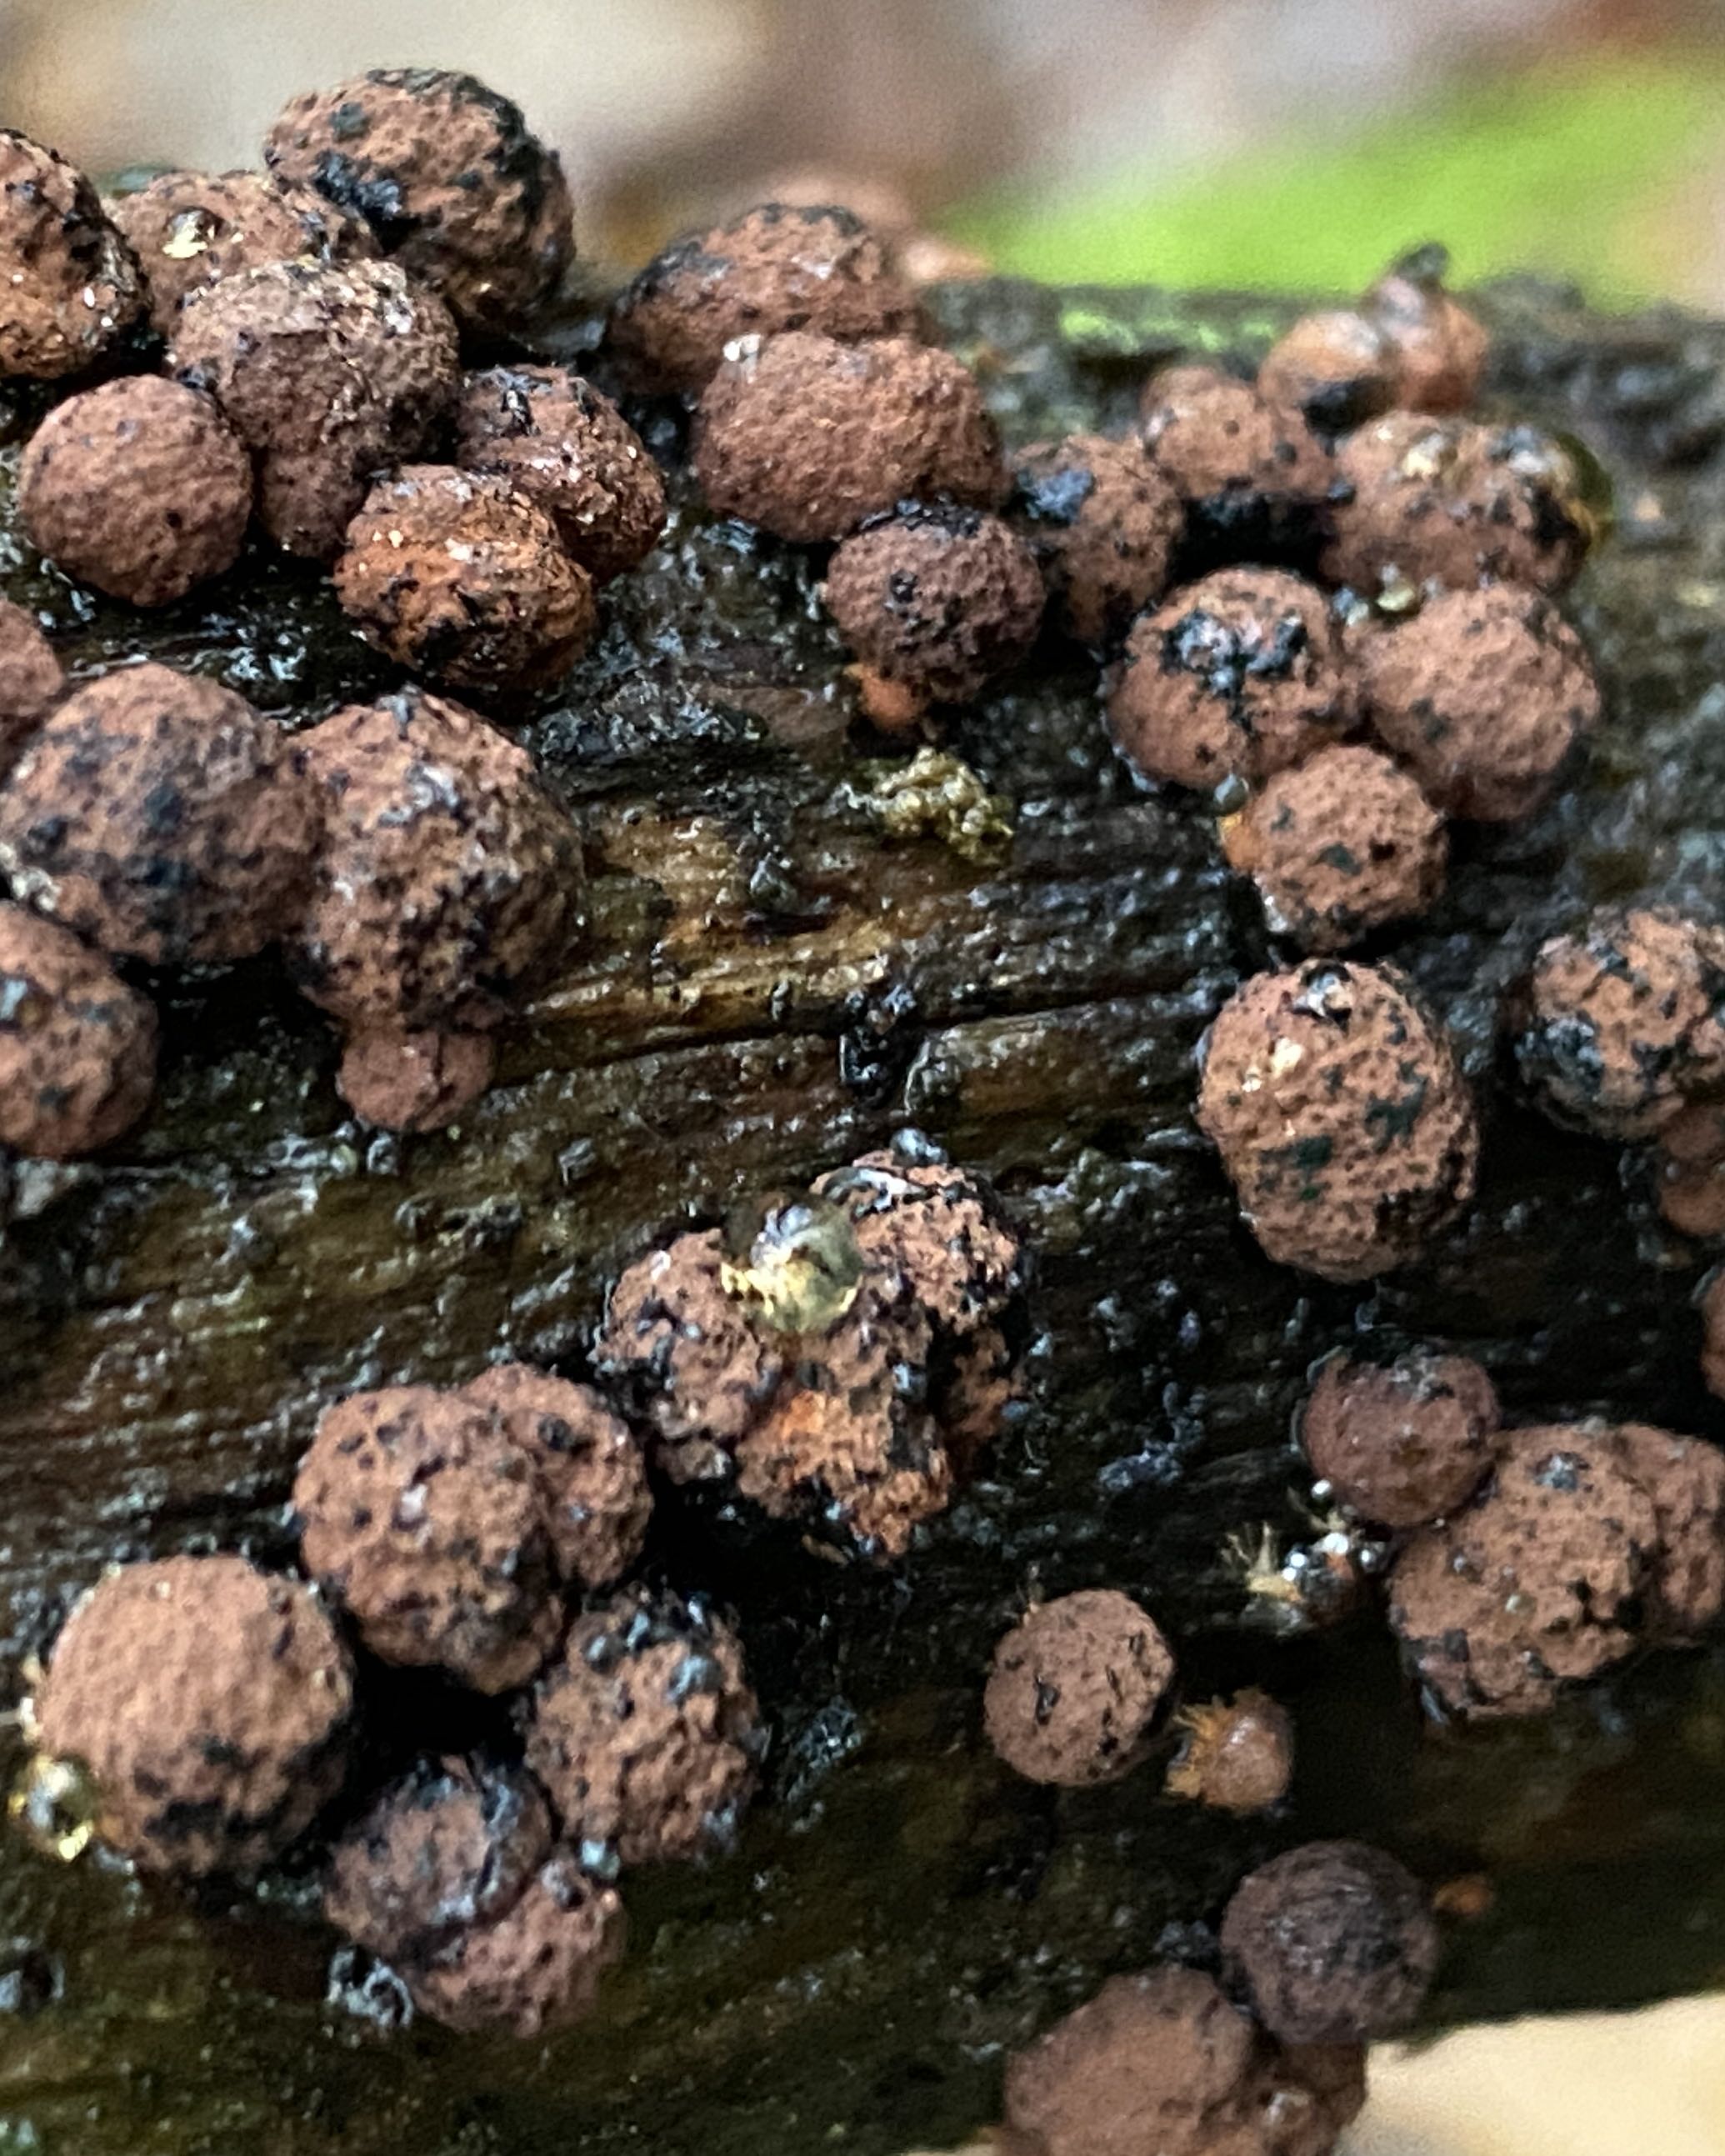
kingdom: Fungi
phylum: Ascomycota
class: Sordariomycetes
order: Xylariales
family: Hypoxylaceae
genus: Hypoxylon
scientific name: Hypoxylon fragiforme
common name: kuljordbær
